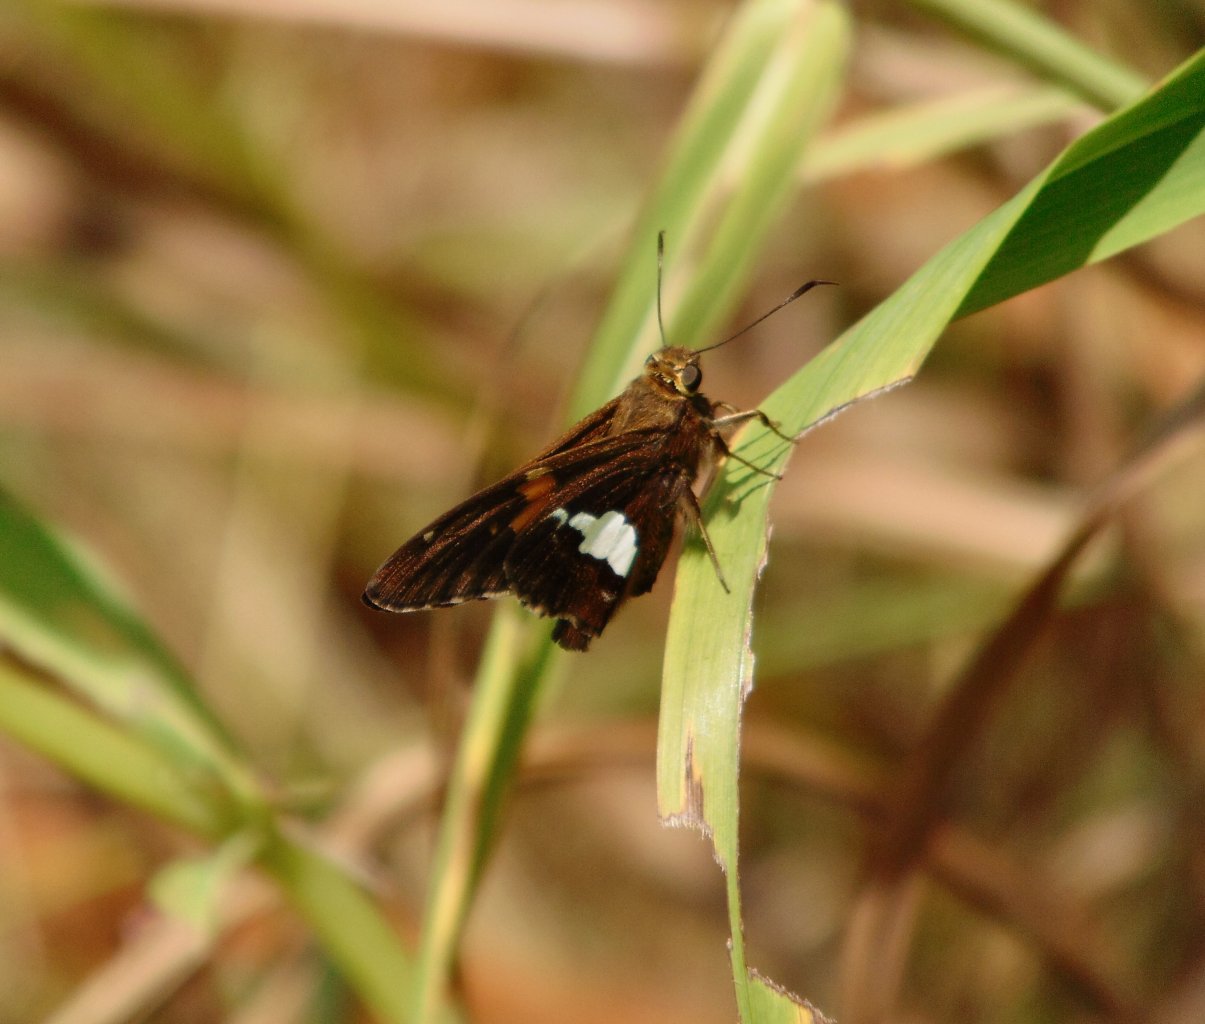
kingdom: Animalia
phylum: Arthropoda
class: Insecta
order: Lepidoptera
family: Hesperiidae
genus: Epargyreus
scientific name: Epargyreus clarus
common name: Silver-spotted Skipper
